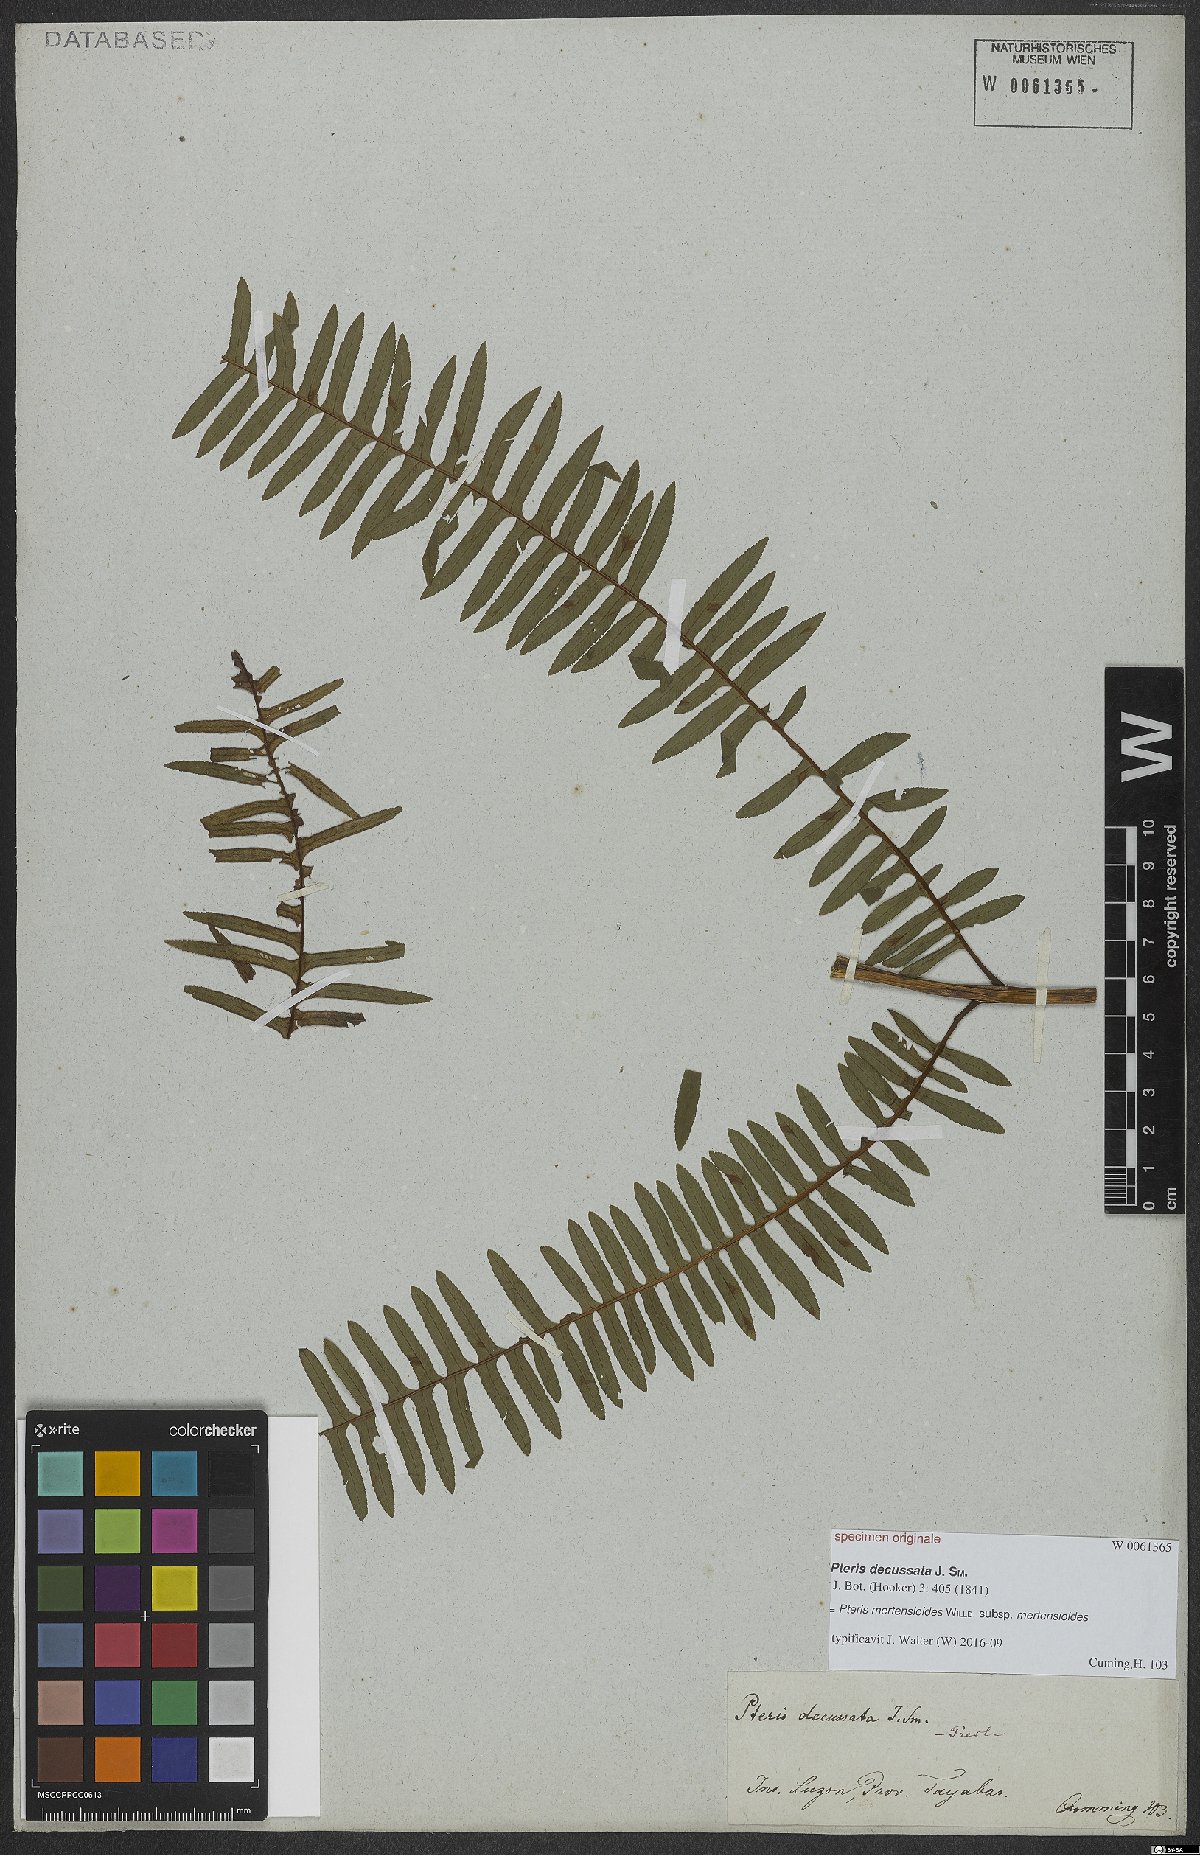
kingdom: Plantae
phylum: Tracheophyta
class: Polypodiopsida
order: Polypodiales
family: Pteridaceae
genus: Pteris
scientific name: Pteris mertensioides
